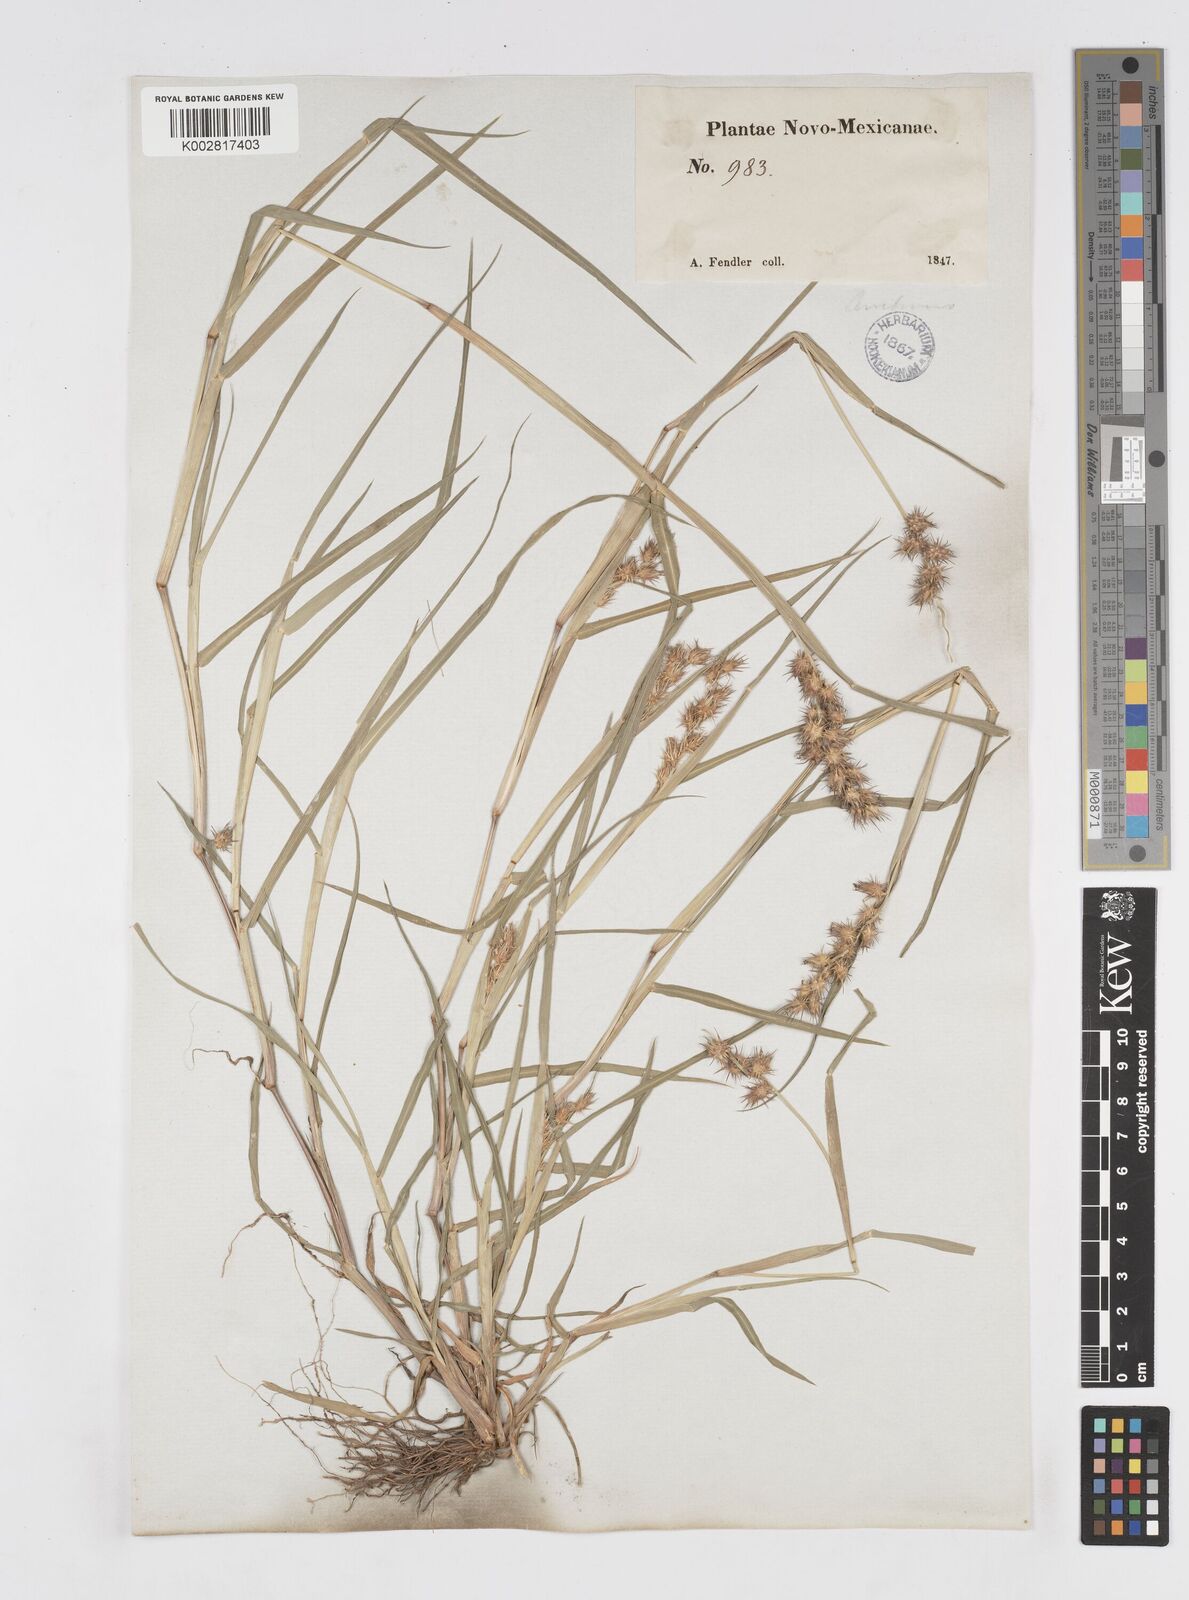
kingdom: Plantae
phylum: Tracheophyta
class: Liliopsida
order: Poales
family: Poaceae
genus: Cenchrus
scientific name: Cenchrus longispinus
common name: Mat sandbur
